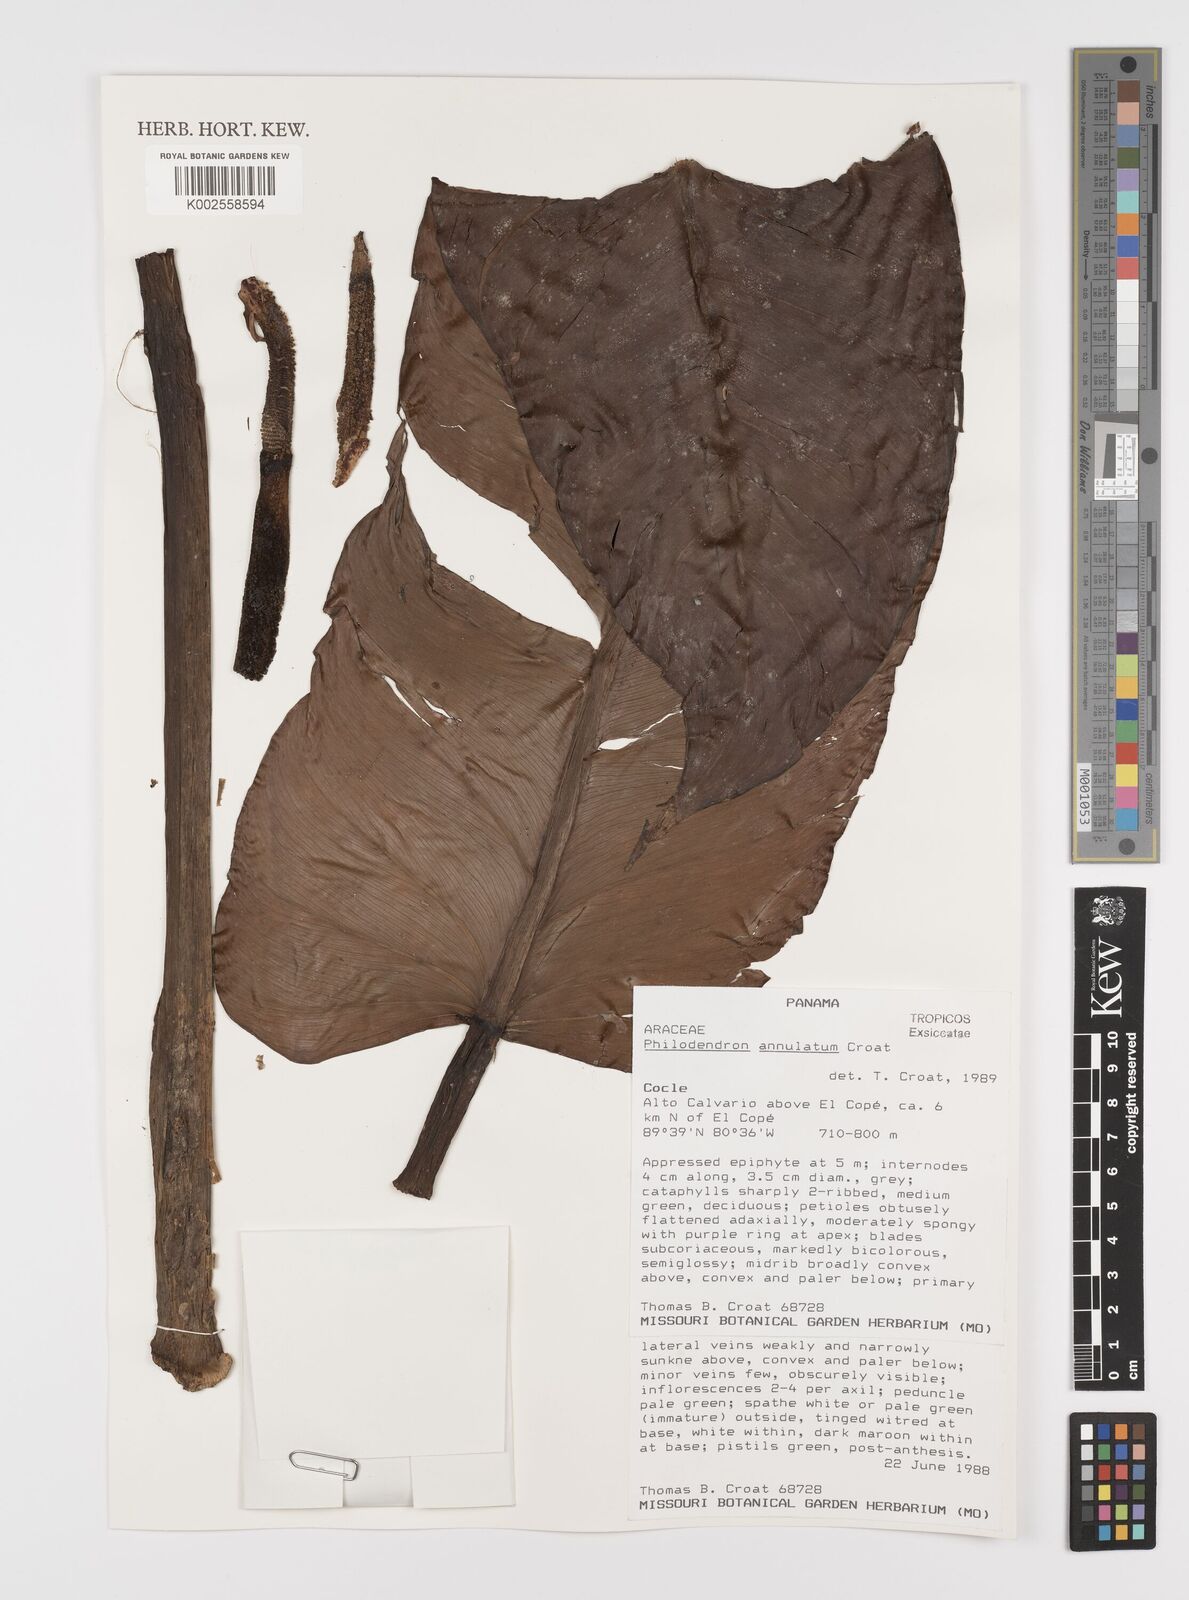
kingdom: Plantae
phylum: Tracheophyta
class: Liliopsida
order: Alismatales
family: Araceae
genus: Philodendron
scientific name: Philodendron annulatum
